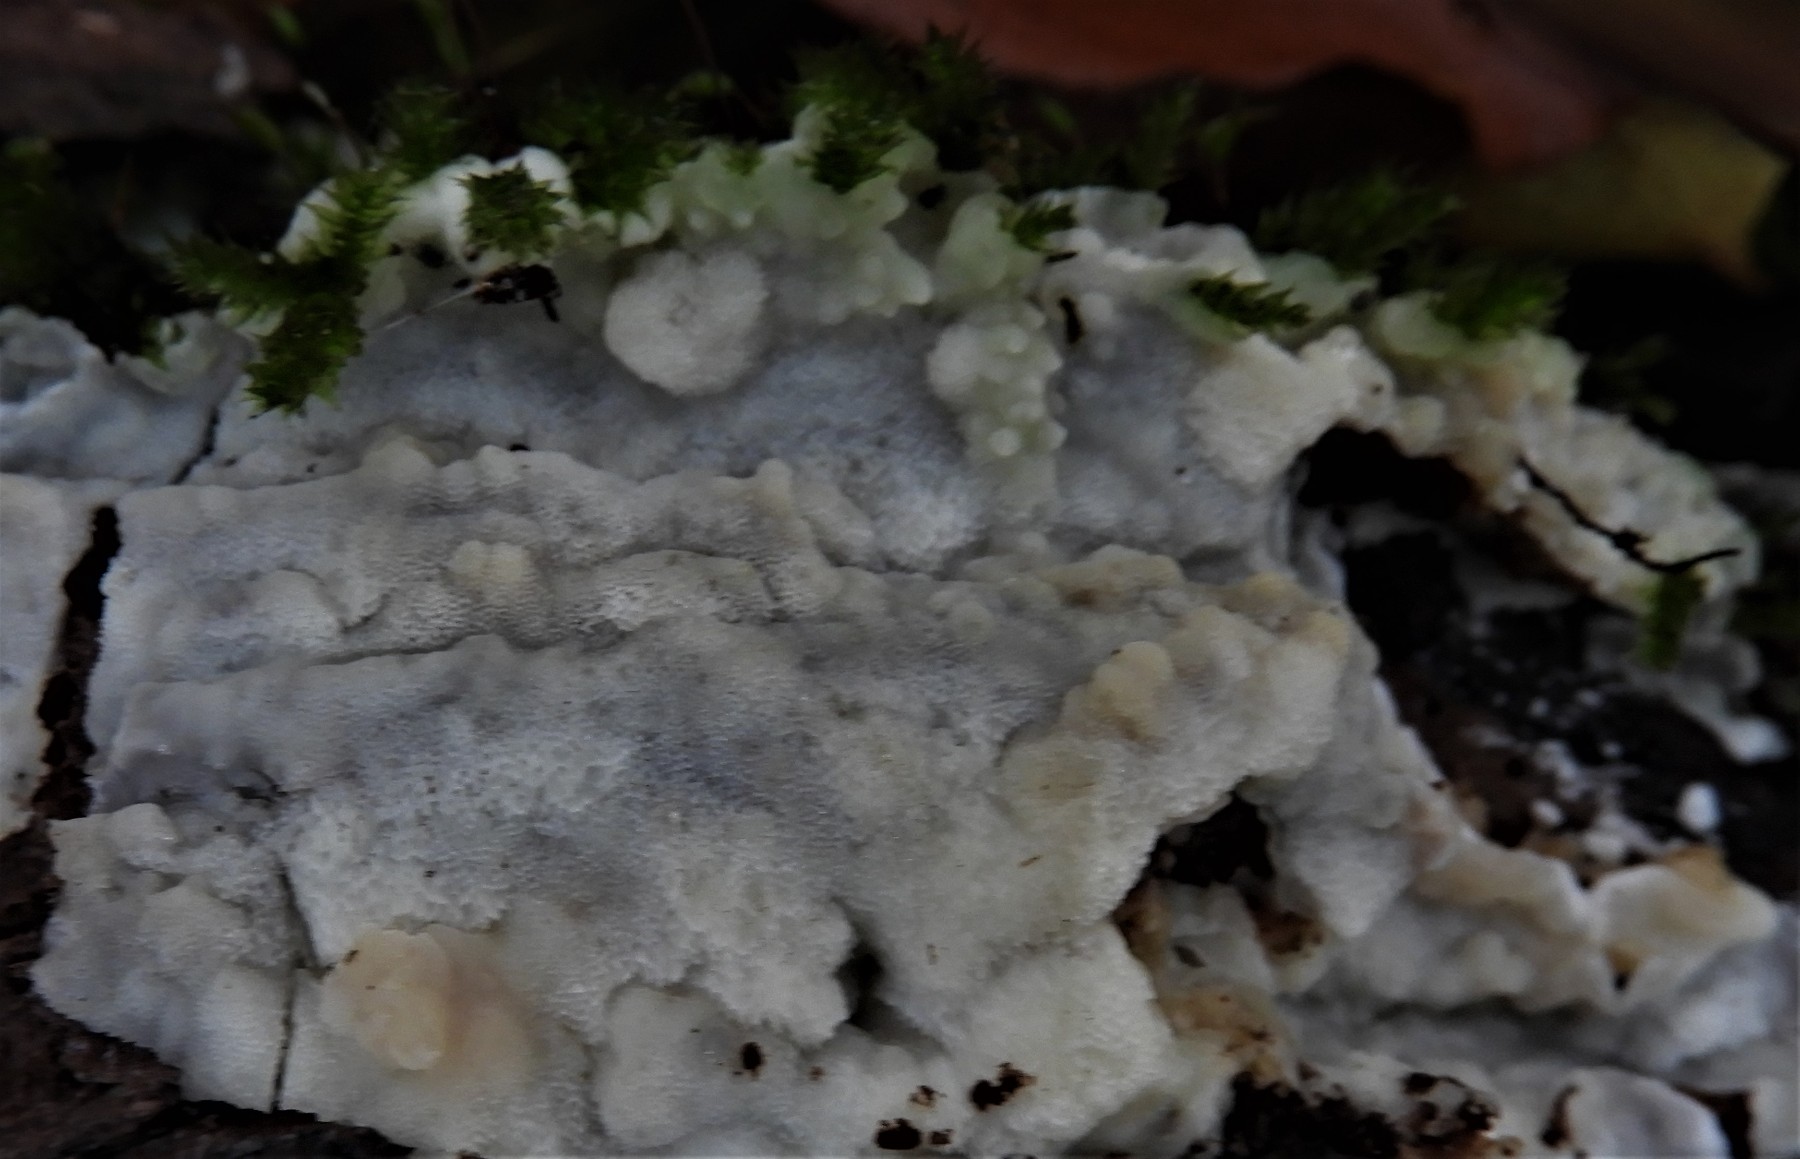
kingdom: Fungi
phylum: Basidiomycota
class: Agaricomycetes
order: Polyporales
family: Meruliaceae
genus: Physisporinus
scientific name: Physisporinus vitreus
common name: mastesvamp
